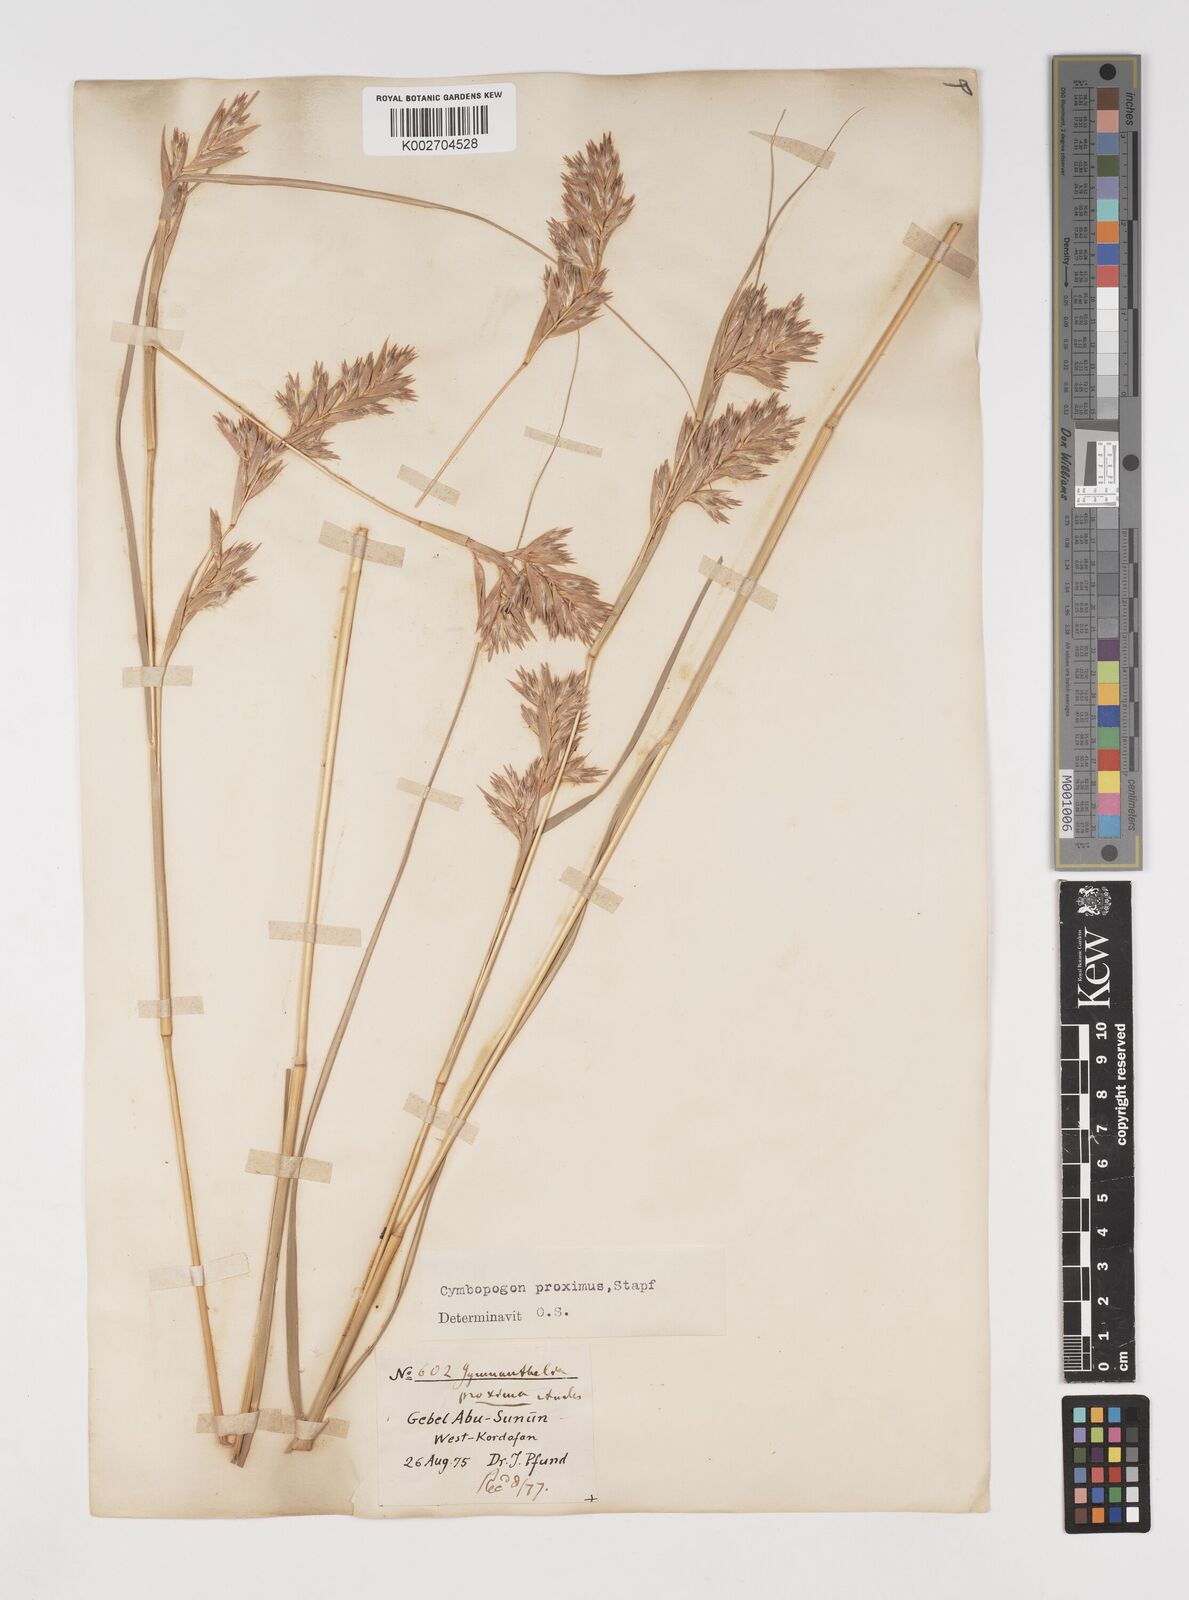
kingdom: Plantae
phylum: Tracheophyta
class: Liliopsida
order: Poales
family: Poaceae
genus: Cymbopogon
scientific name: Cymbopogon schoenanthus
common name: Geranium grass
